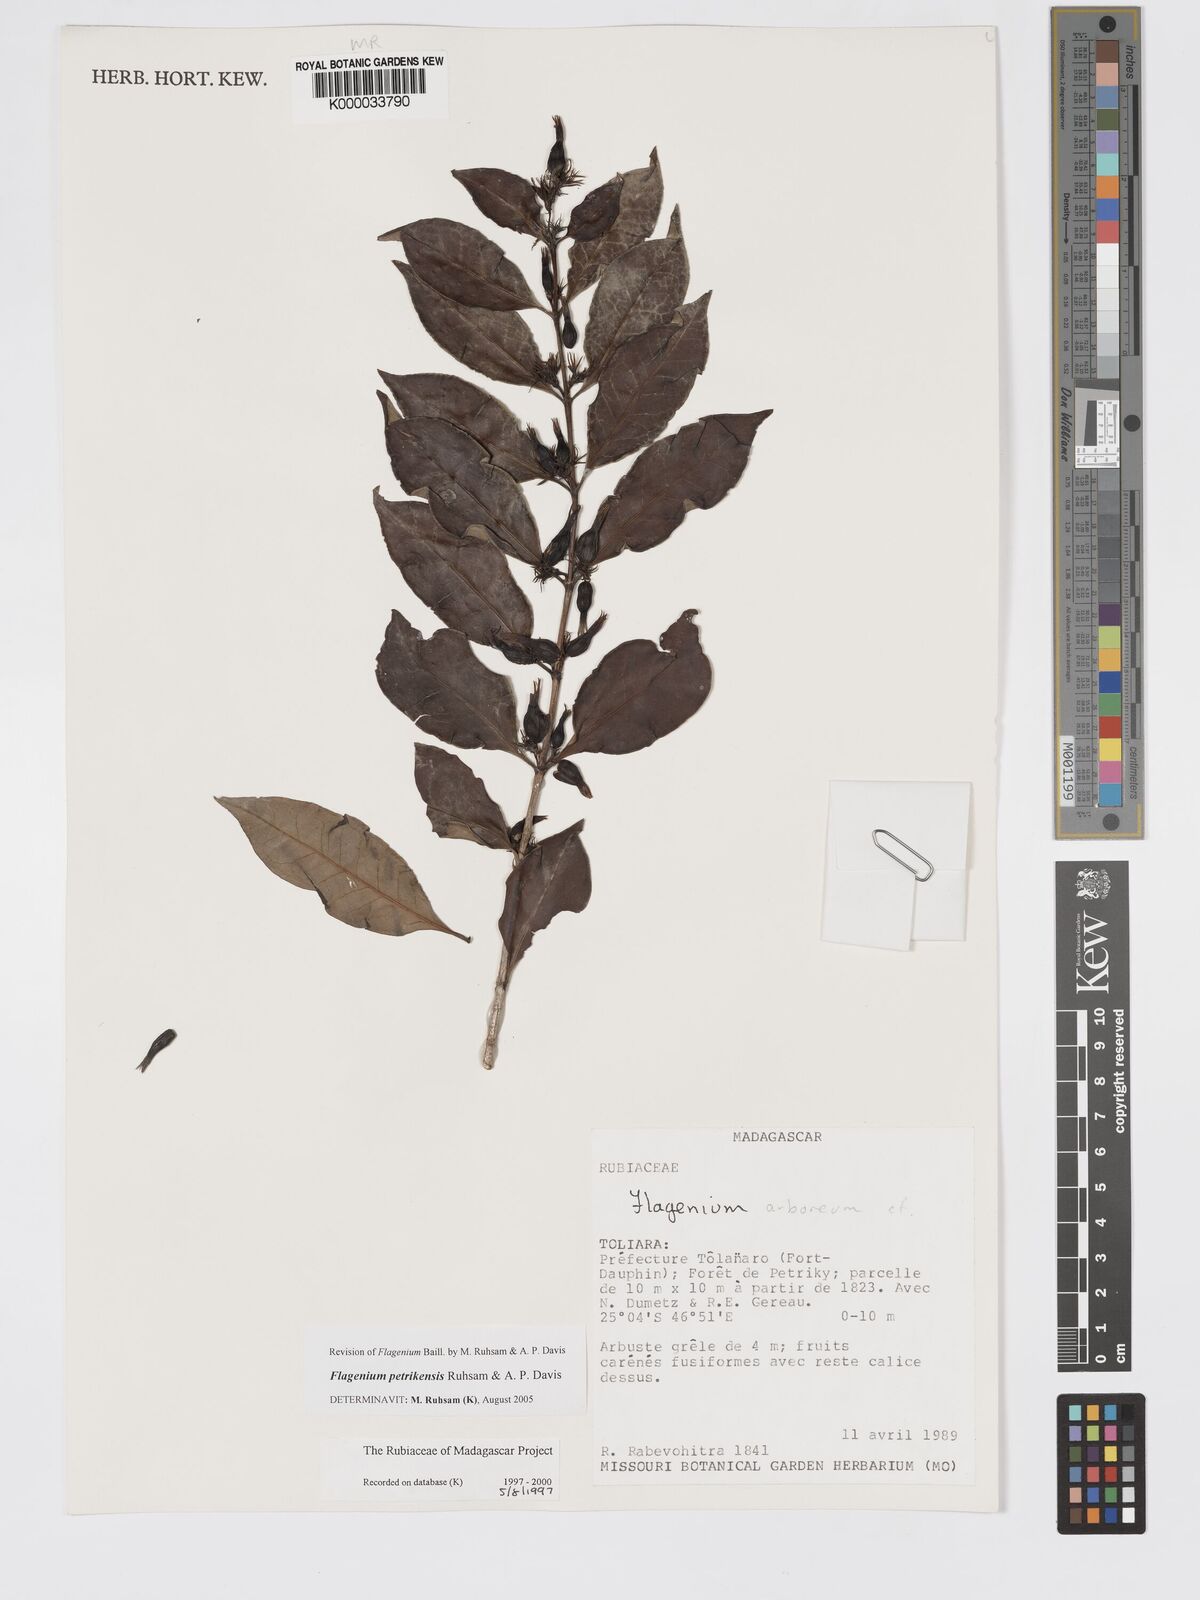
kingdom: Plantae
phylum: Tracheophyta
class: Magnoliopsida
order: Gentianales
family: Rubiaceae
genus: Flagenium
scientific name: Flagenium
